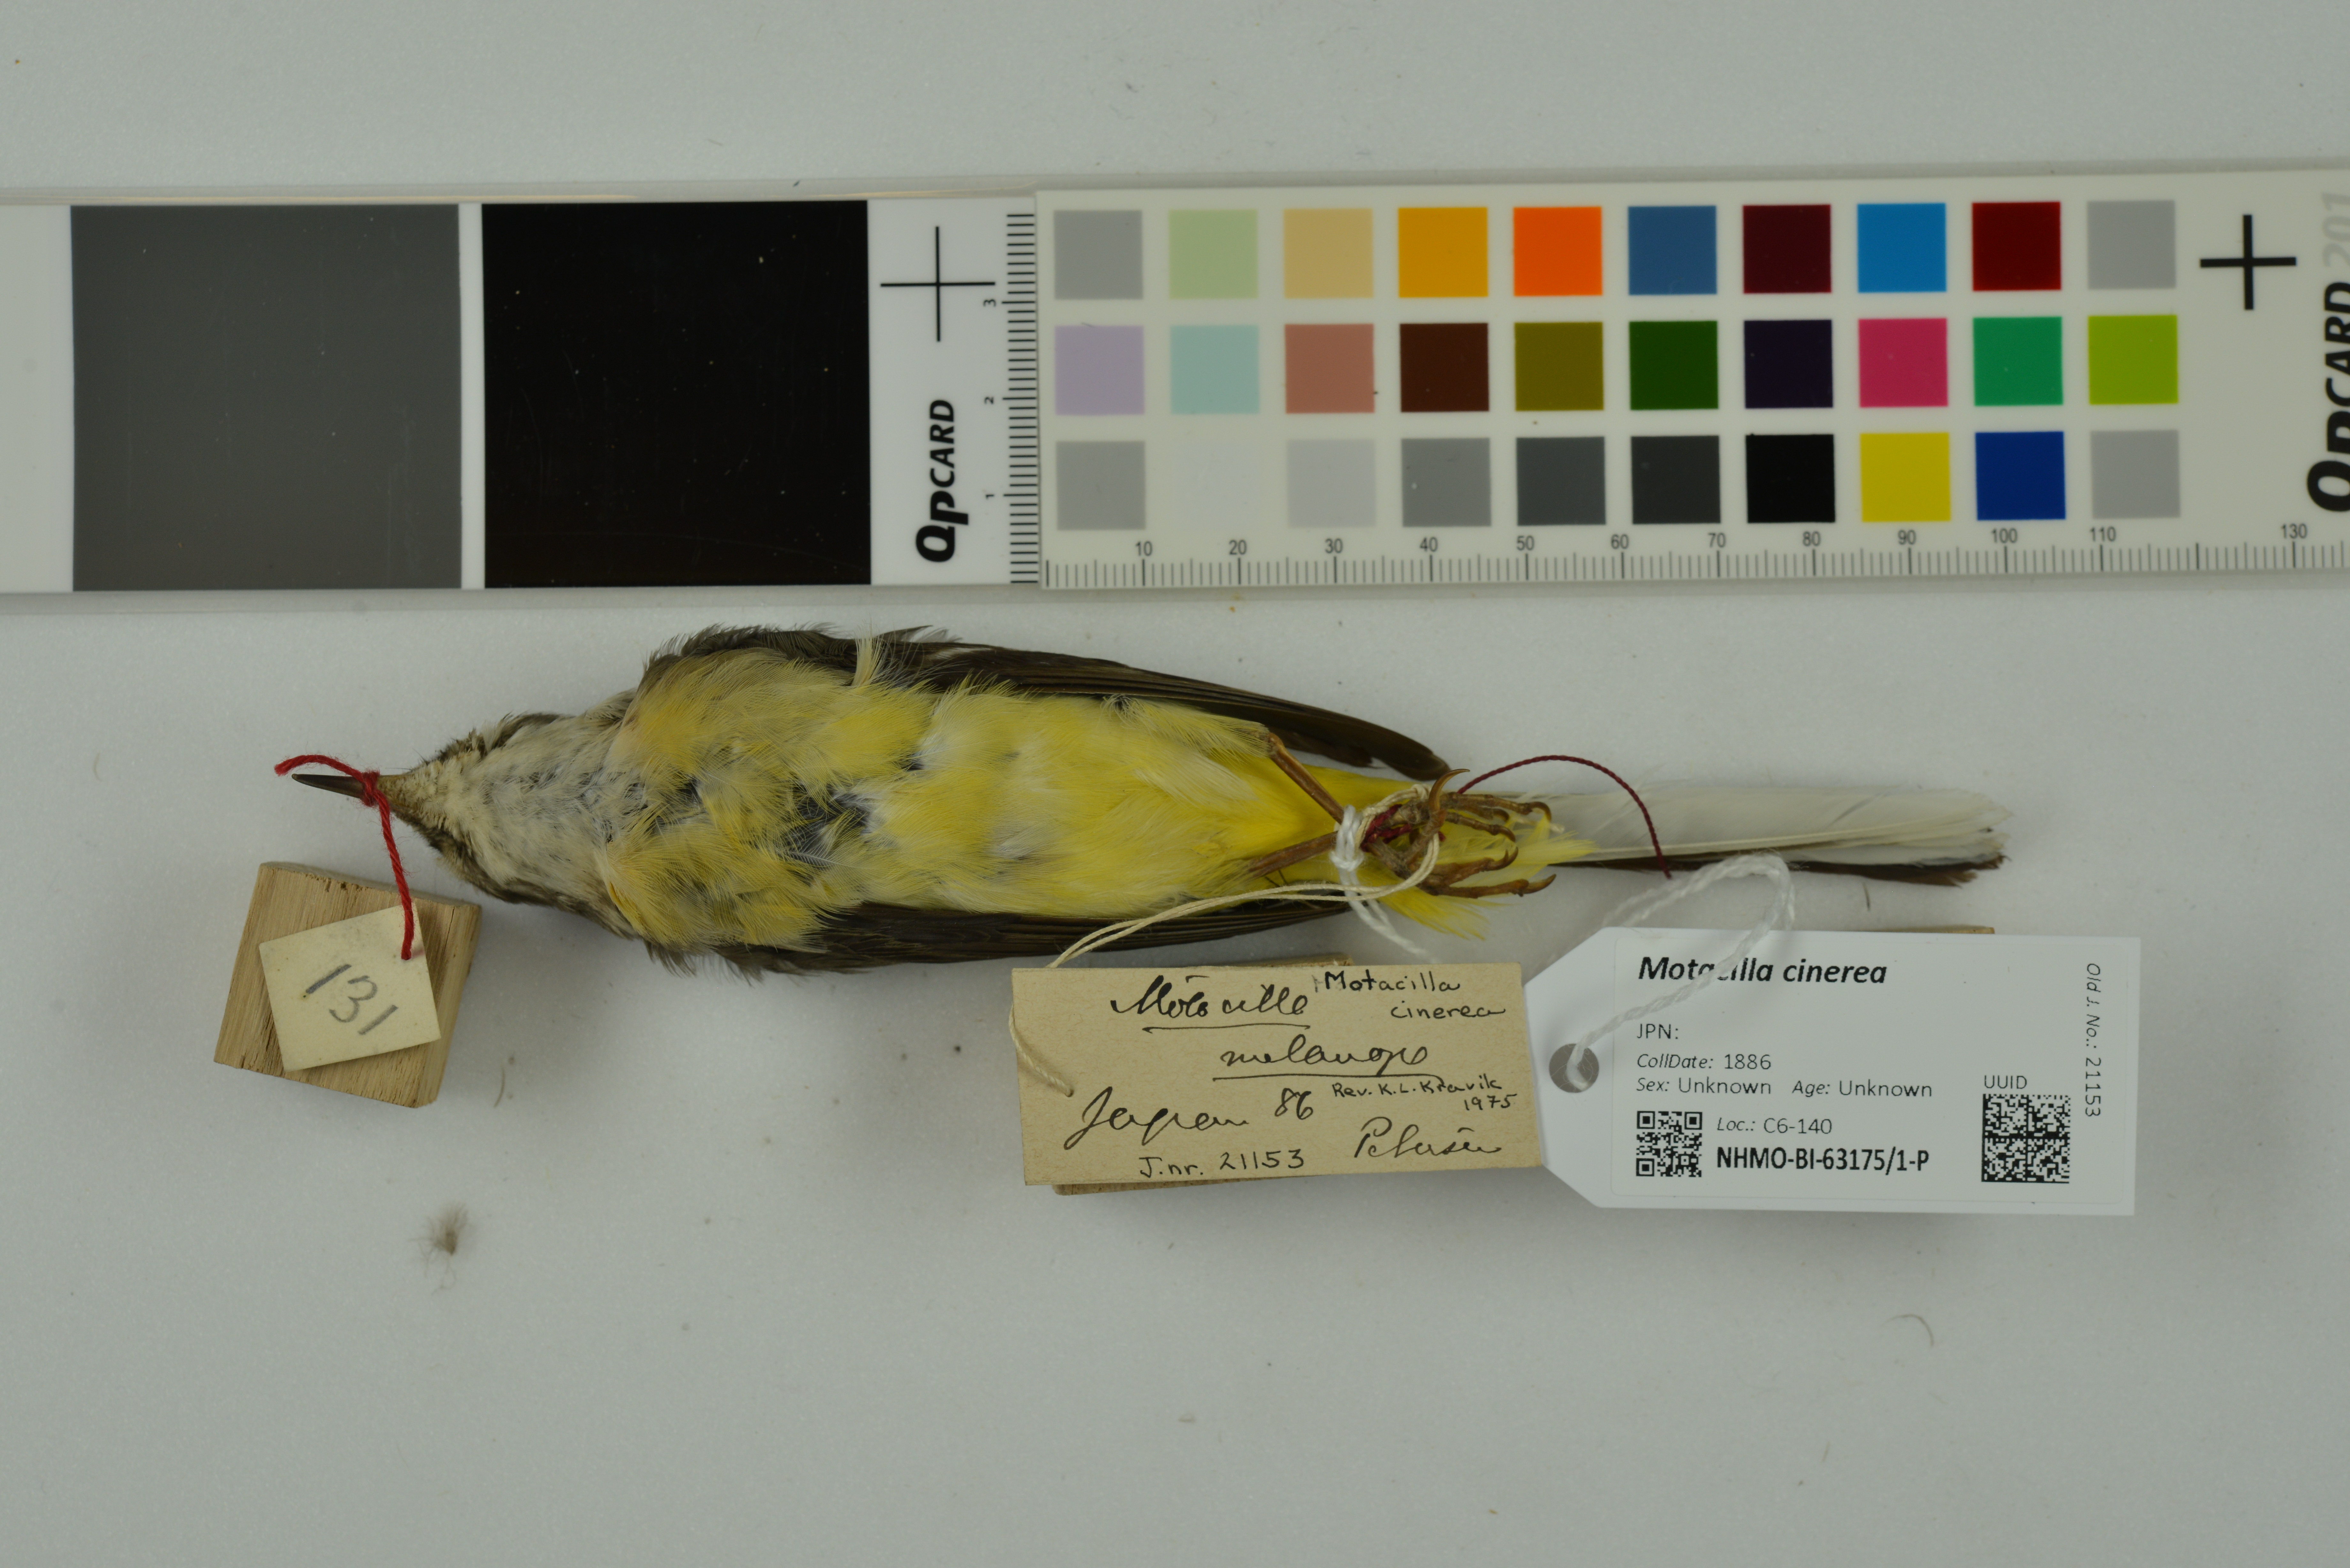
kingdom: Animalia
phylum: Chordata
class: Aves
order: Passeriformes
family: Motacillidae
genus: Motacilla
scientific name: Motacilla cinerea
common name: Grey wagtail
